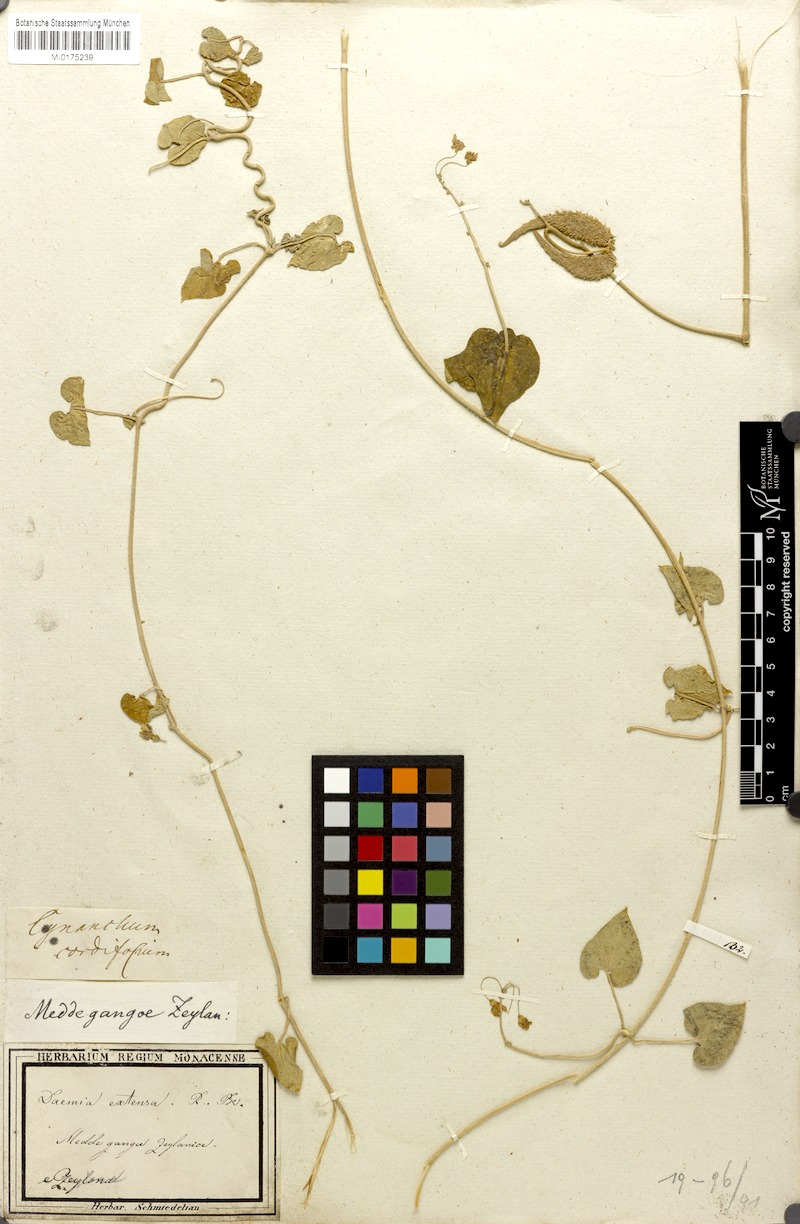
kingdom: Plantae
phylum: Tracheophyta
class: Magnoliopsida
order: Gentianales
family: Apocynaceae
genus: Pergularia
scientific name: Pergularia daemia
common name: Trellis-vine
